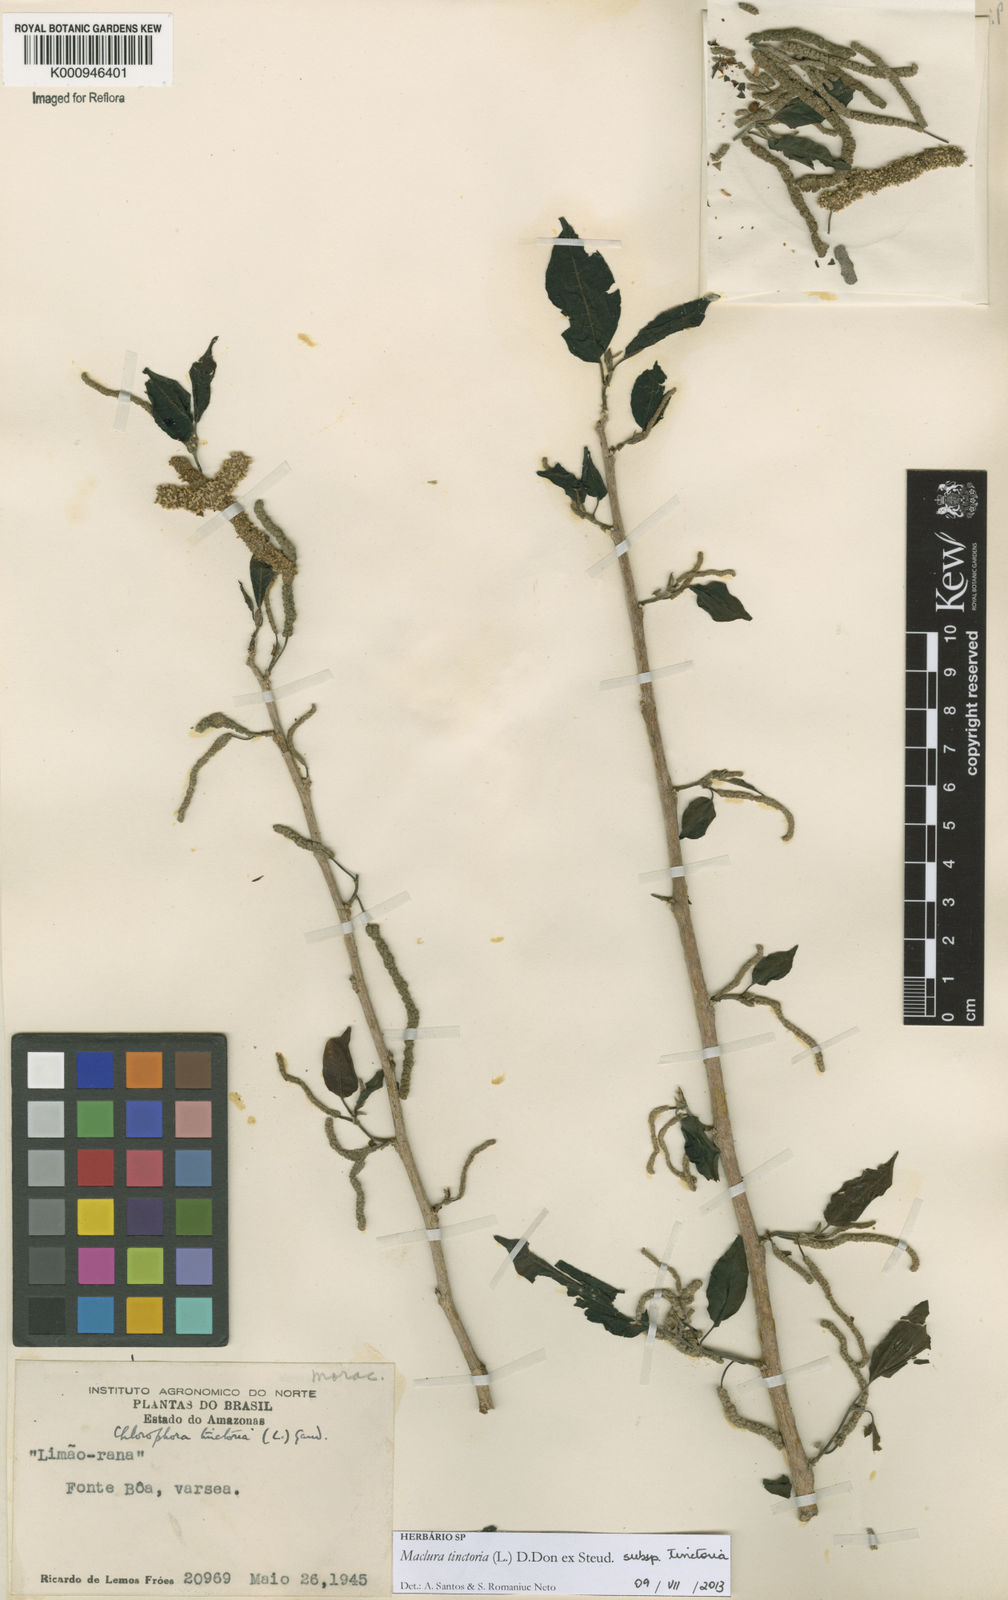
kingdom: Plantae
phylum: Tracheophyta
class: Magnoliopsida
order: Rosales
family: Moraceae
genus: Maclura
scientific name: Maclura
